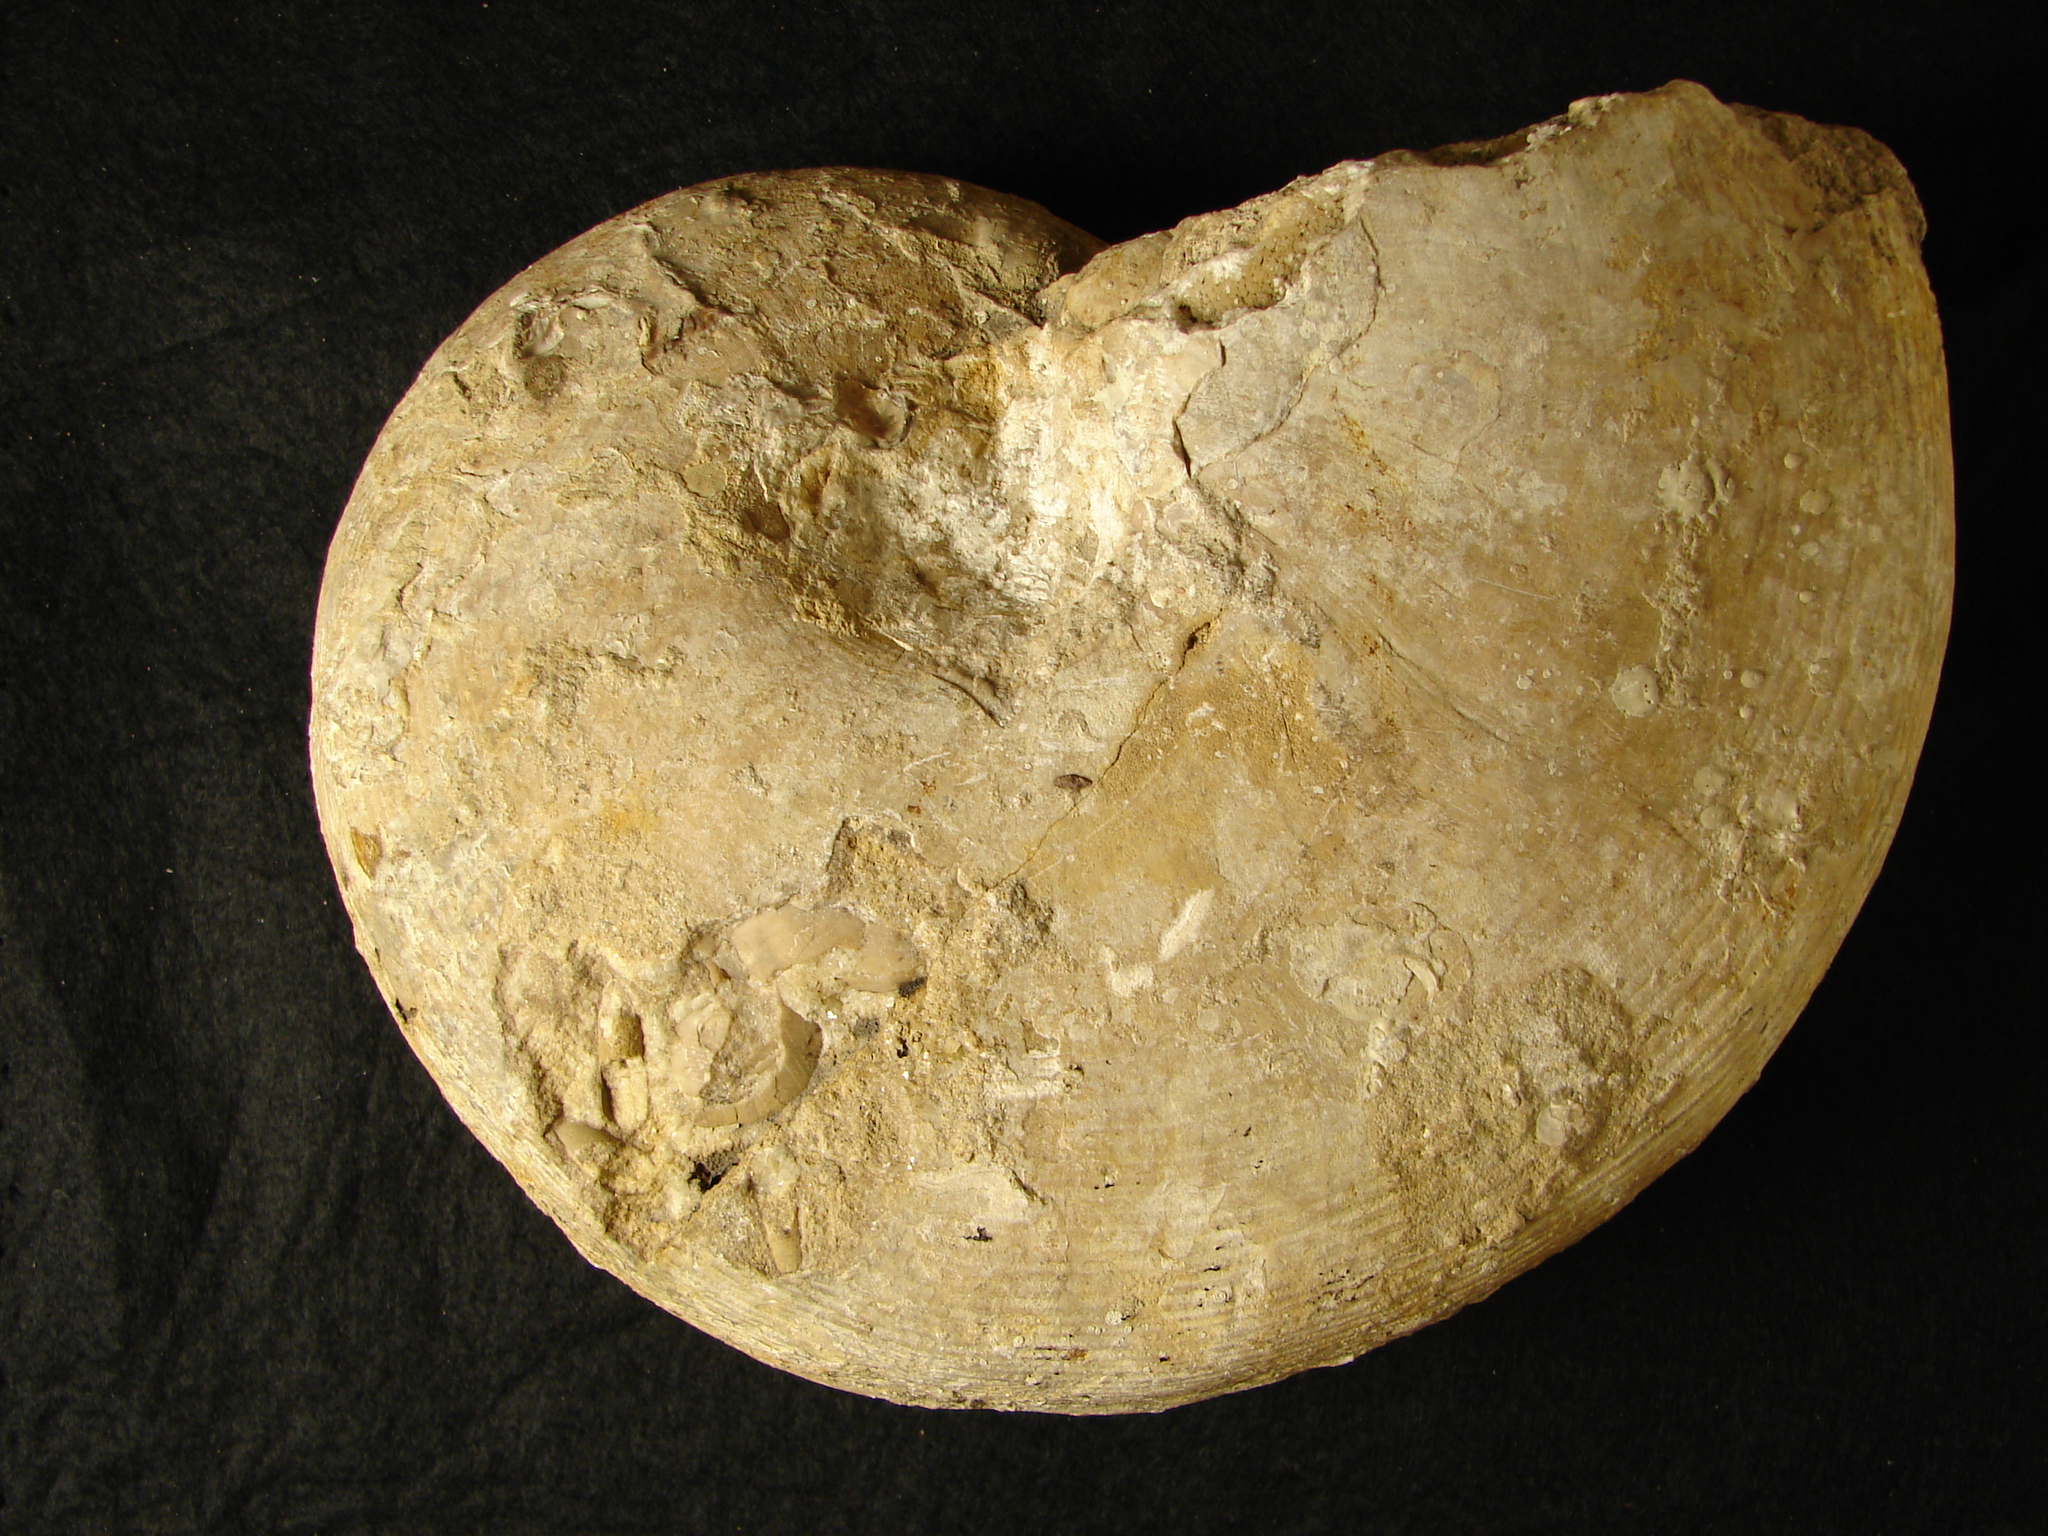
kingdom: Animalia
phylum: Mollusca
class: Cephalopoda
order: Nautilida
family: Nautilidae
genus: Cenoceras
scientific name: Cenoceras
